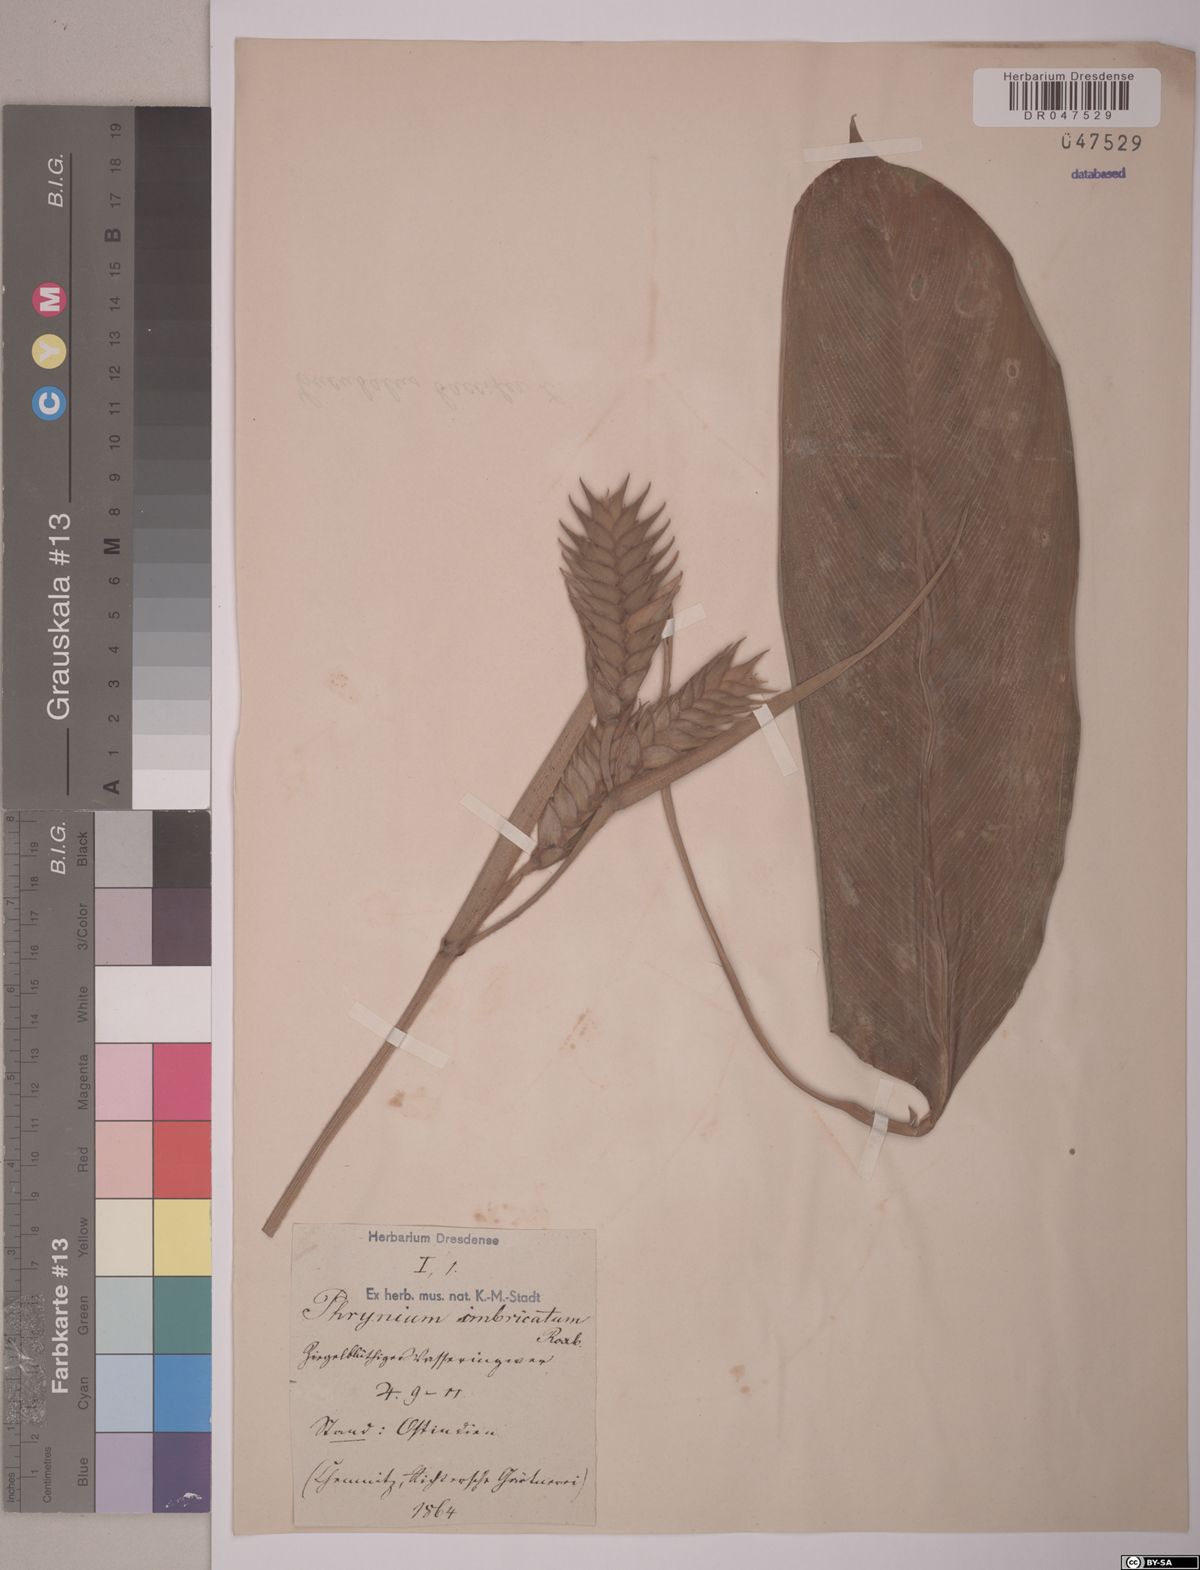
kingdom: Plantae
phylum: Tracheophyta
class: Liliopsida
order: Zingiberales
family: Marantaceae
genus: Phrynium
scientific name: Phrynium imbricatum
